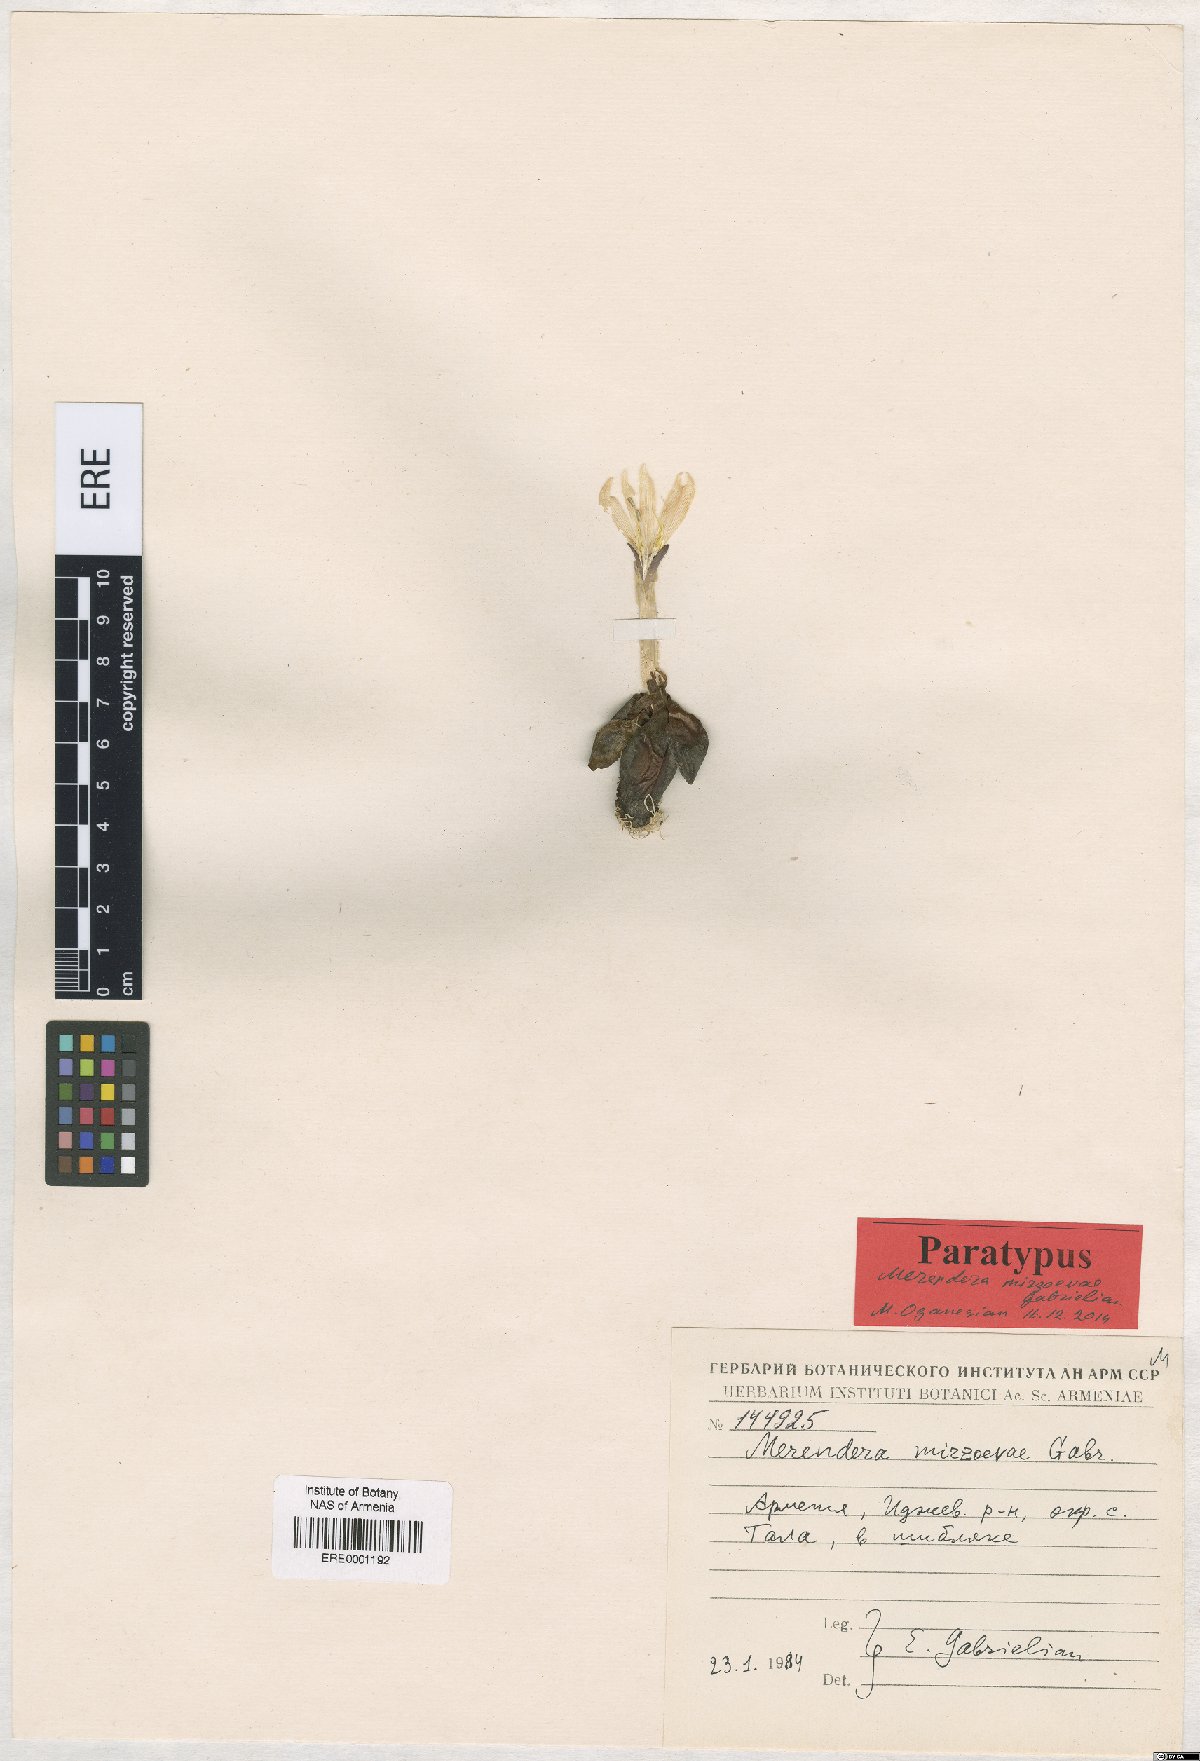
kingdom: Plantae
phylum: Tracheophyta
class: Liliopsida
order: Liliales
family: Colchicaceae
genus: Colchicum
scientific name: Colchicum trigynum
